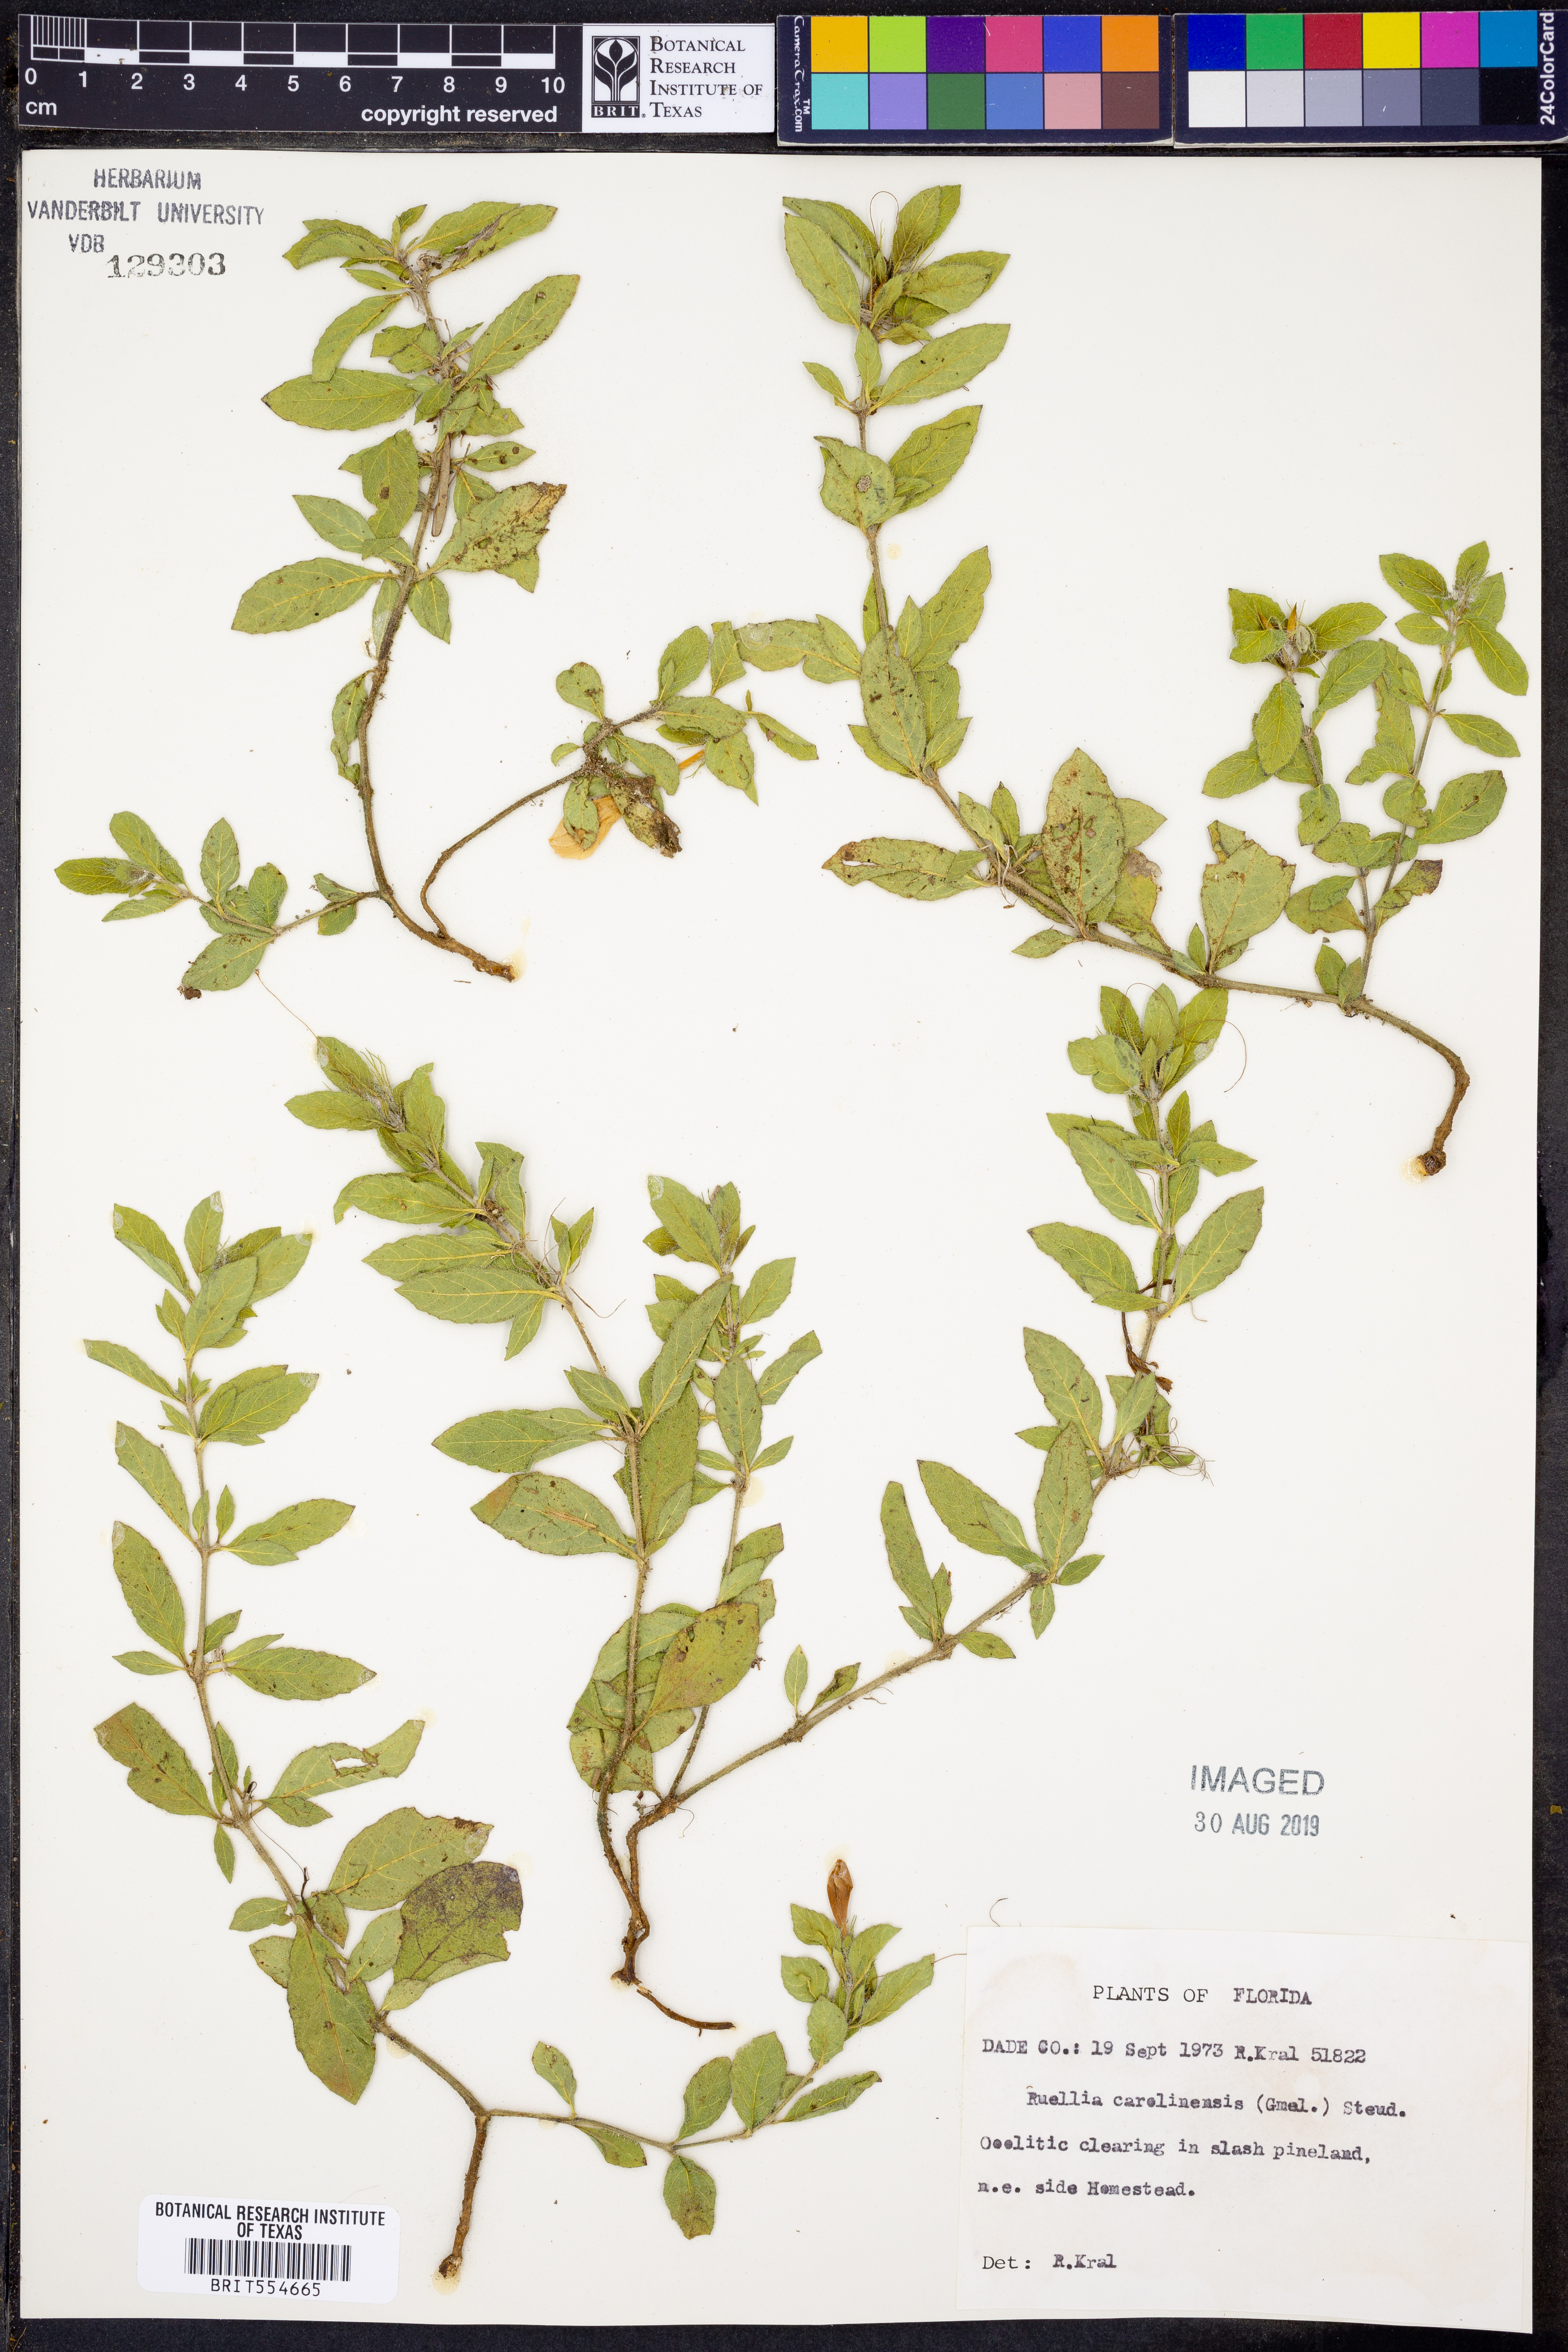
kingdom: Plantae
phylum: Tracheophyta
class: Magnoliopsida
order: Lamiales
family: Acanthaceae
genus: Ruellia
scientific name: Ruellia caroliniensis
